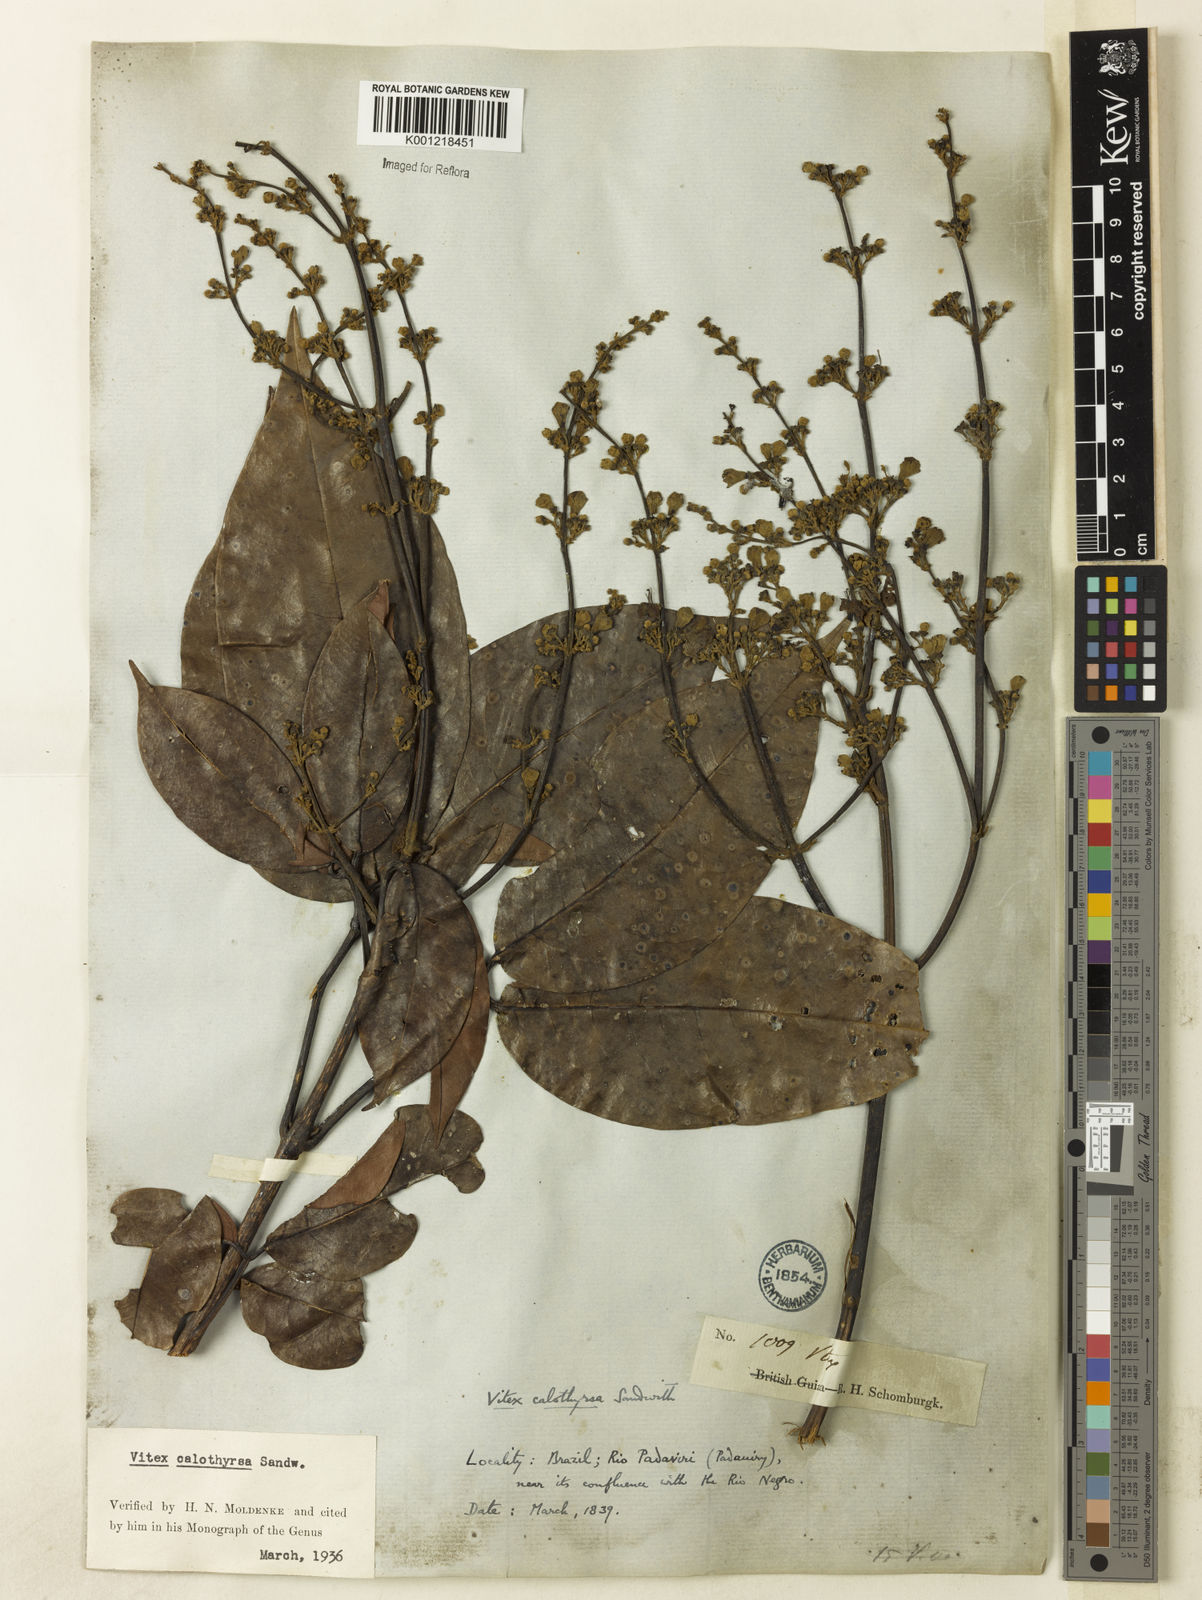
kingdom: Plantae
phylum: Tracheophyta
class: Magnoliopsida
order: Lamiales
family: Lamiaceae
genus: Vitex
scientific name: Vitex calothyrsa
